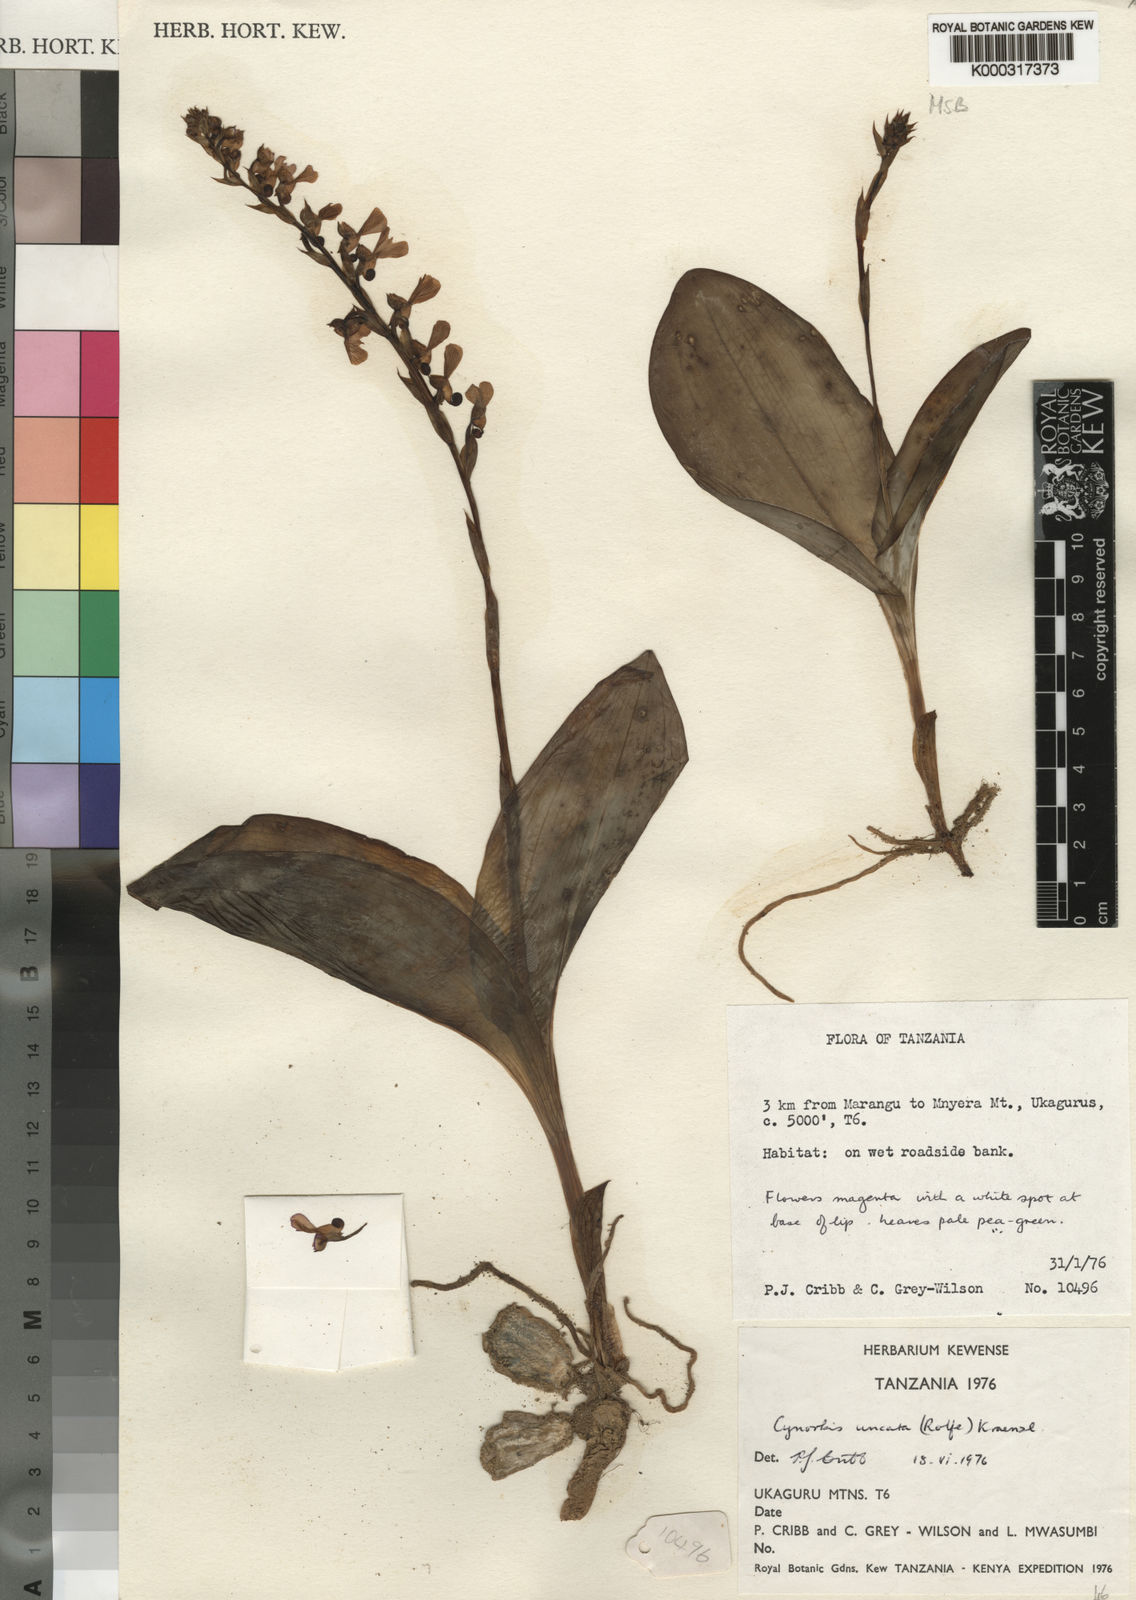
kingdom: Plantae
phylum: Tracheophyta
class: Liliopsida
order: Asparagales
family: Orchidaceae
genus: Cynorkis
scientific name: Cynorkis uncata
